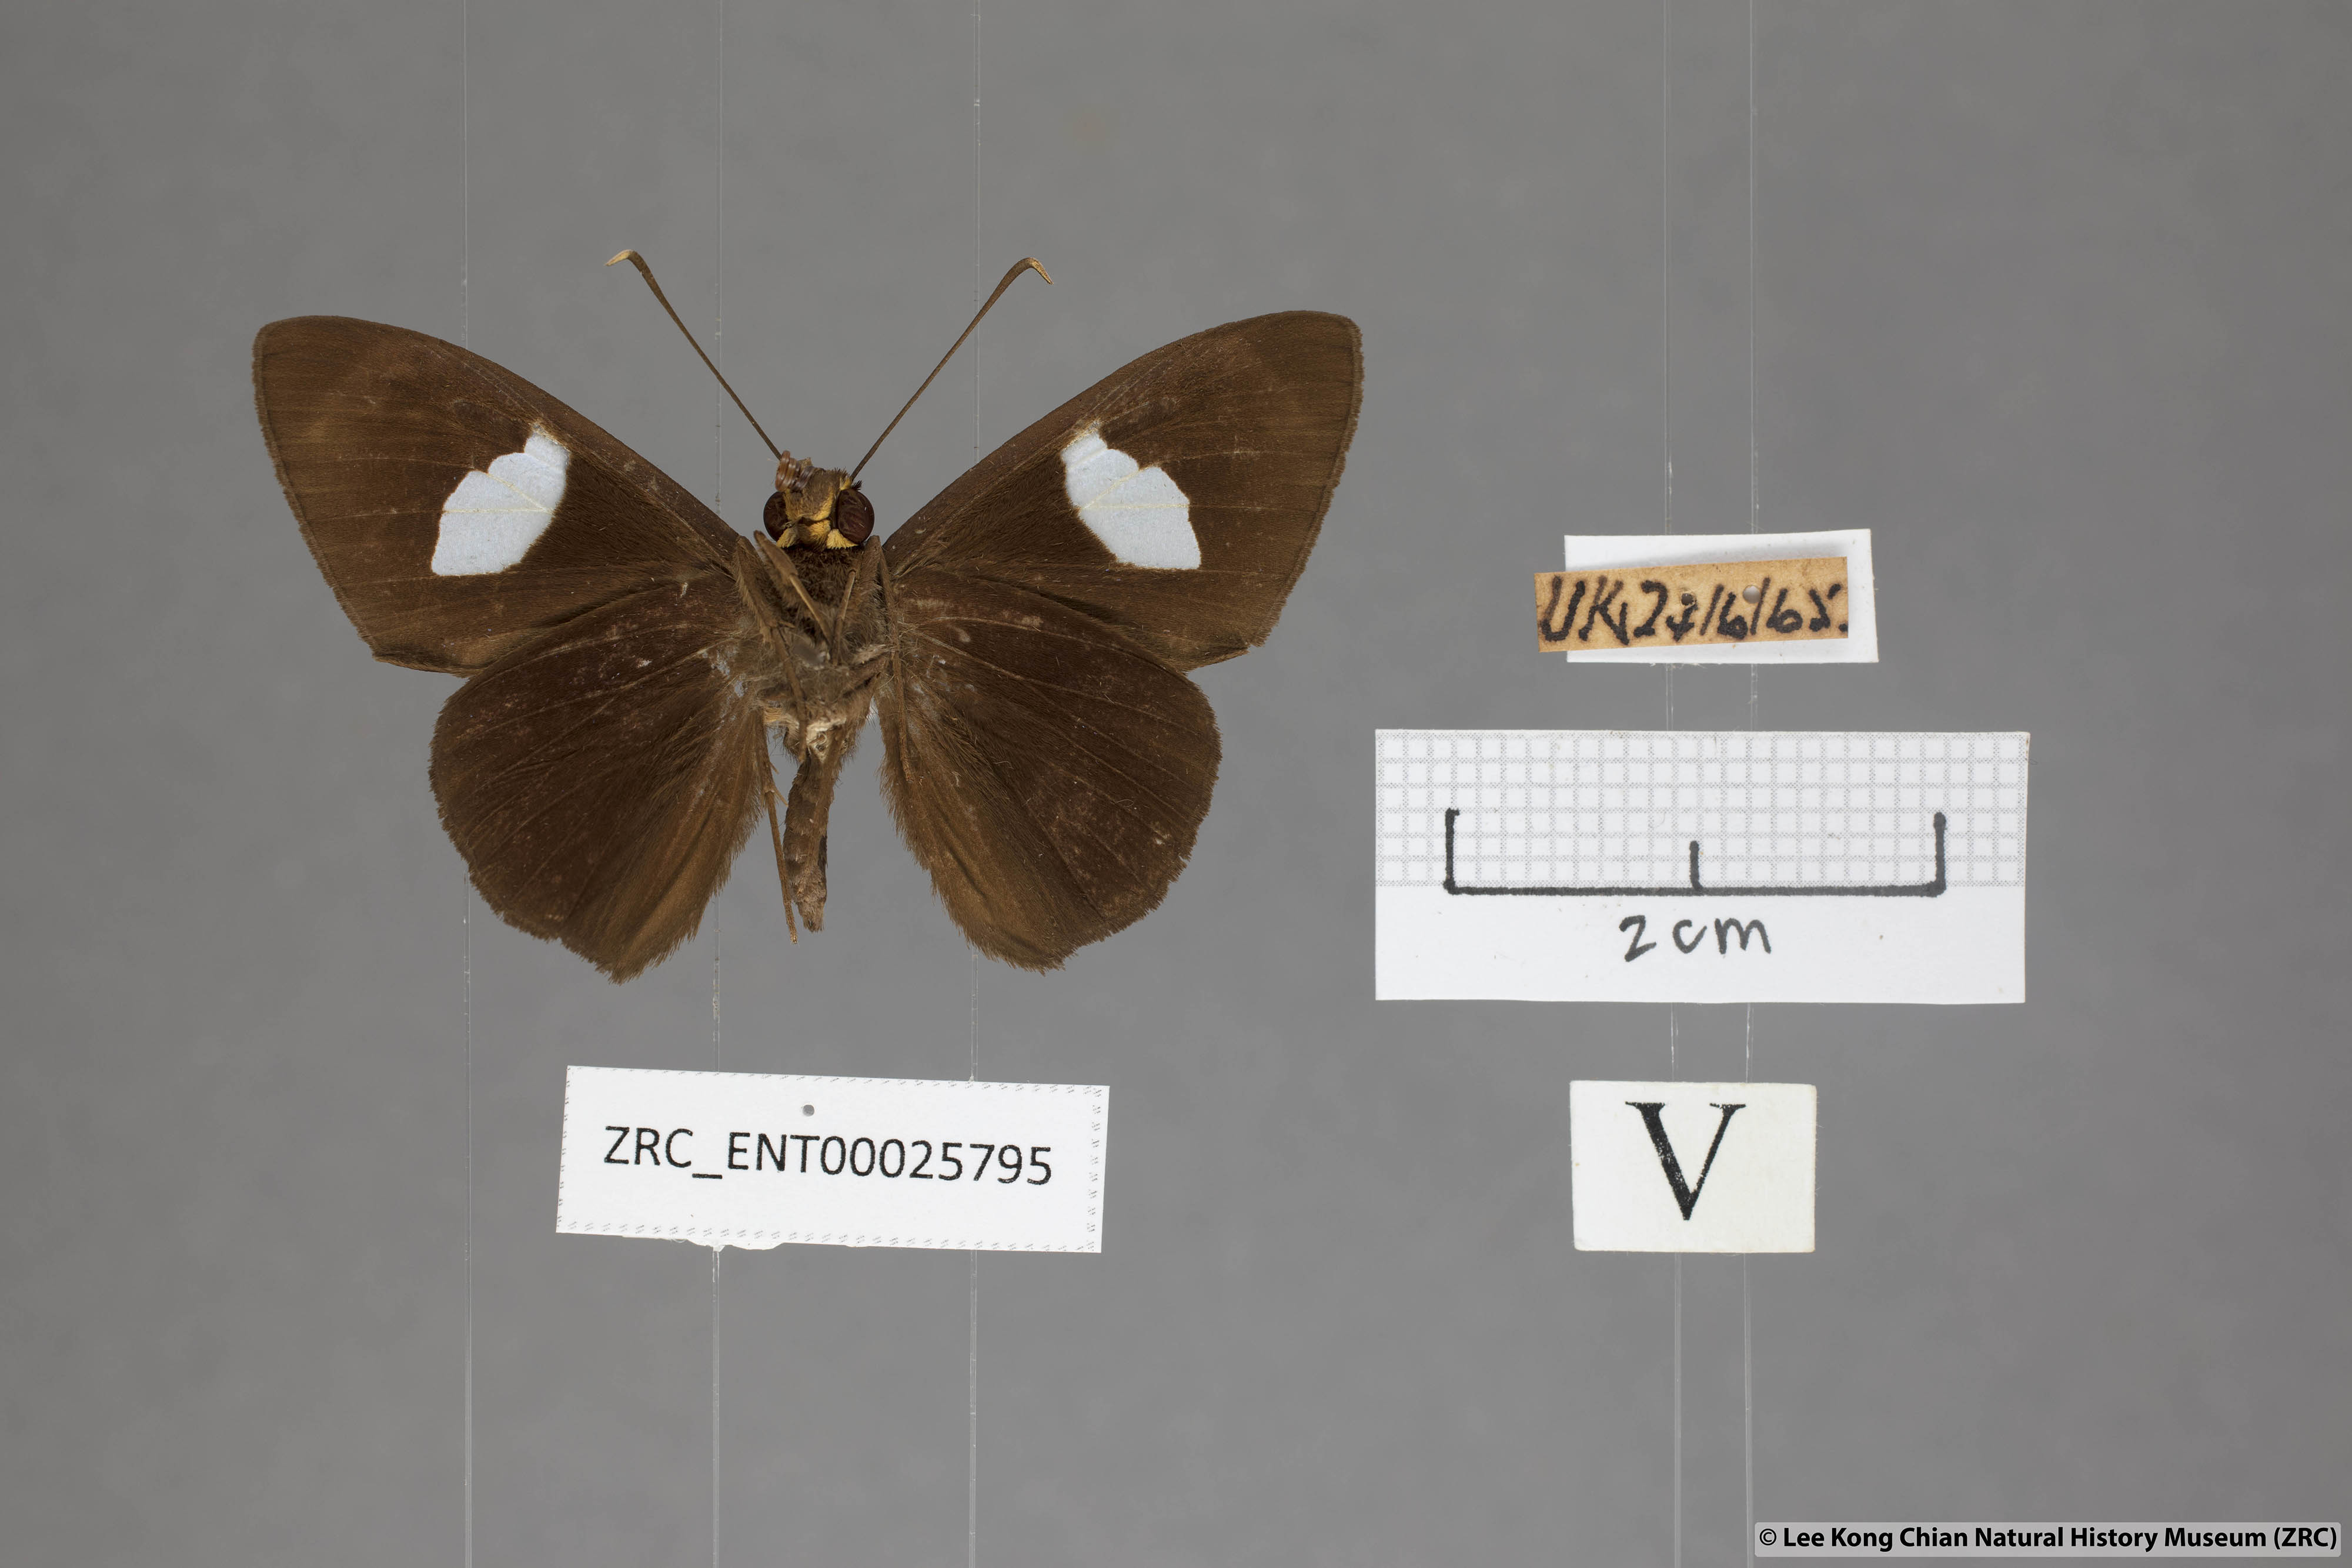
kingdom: Animalia
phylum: Arthropoda
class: Insecta
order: Lepidoptera
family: Hesperiidae
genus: Celaenorrhinus
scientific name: Celaenorrhinus ficulnea
